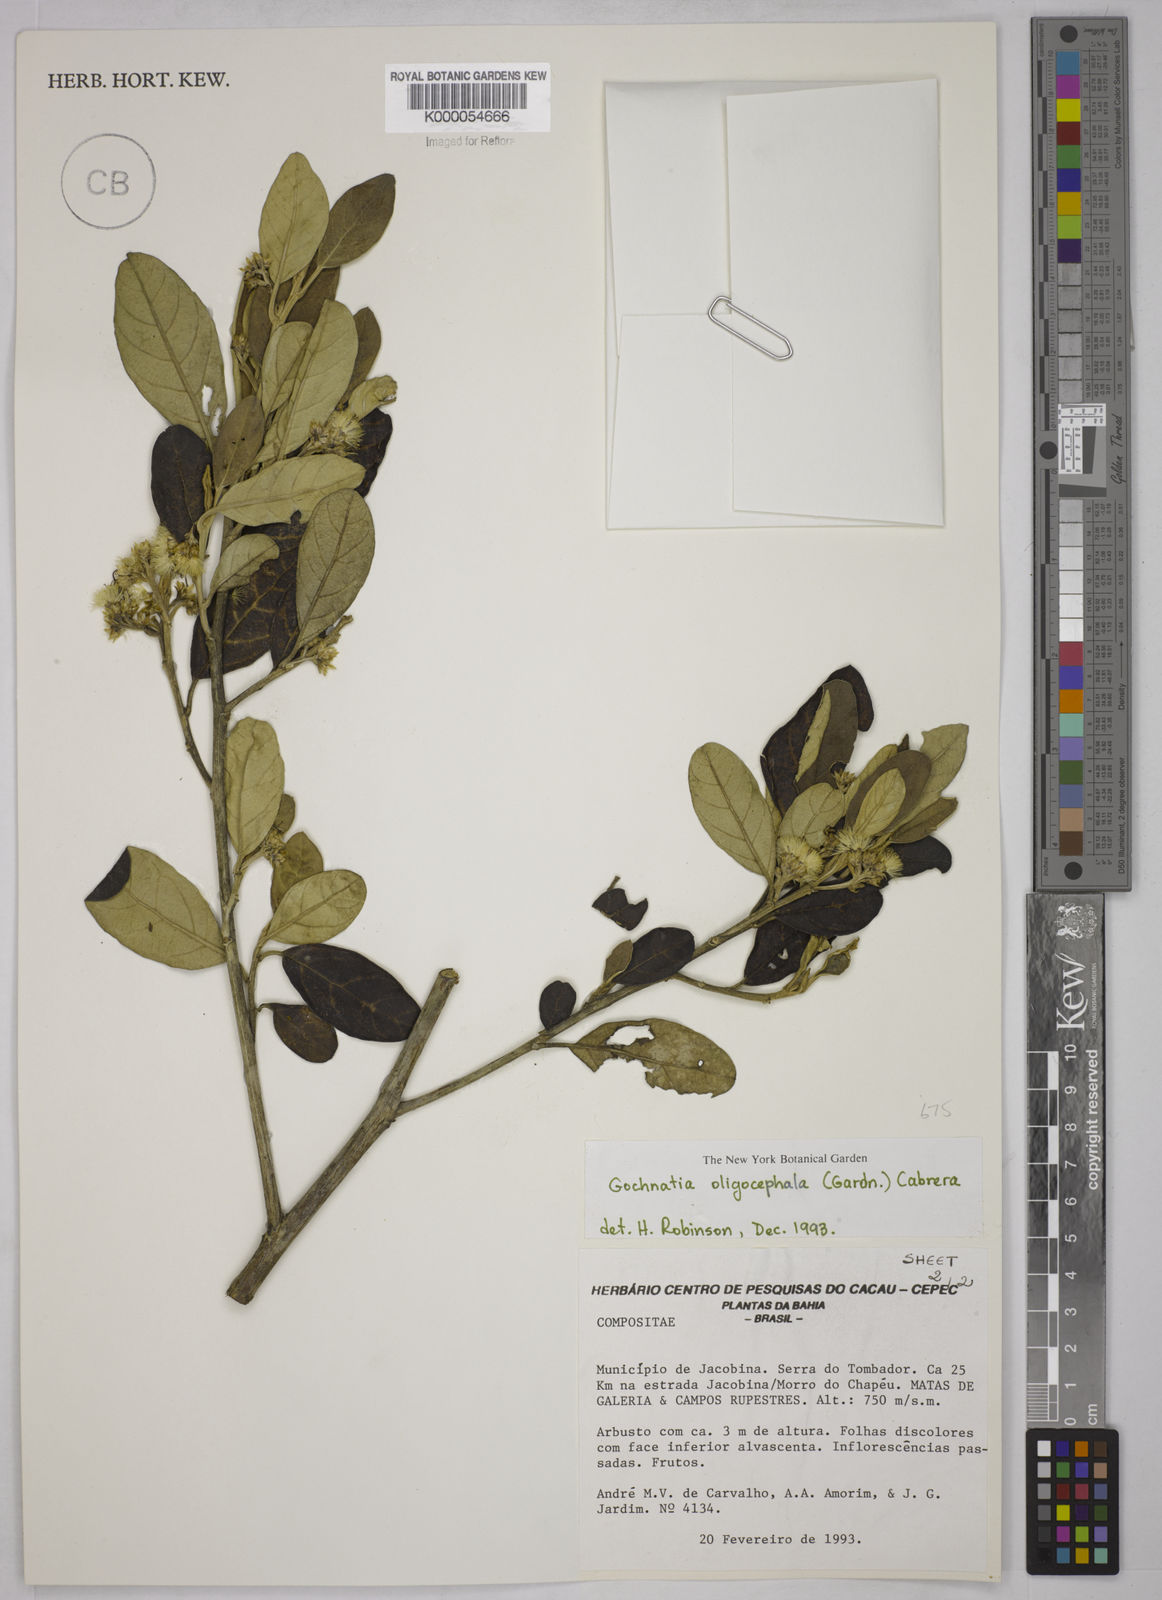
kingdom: Plantae
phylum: Tracheophyta
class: Magnoliopsida
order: Asterales
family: Asteraceae
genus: Moquiniastrum
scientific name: Moquiniastrum oligocephalum
